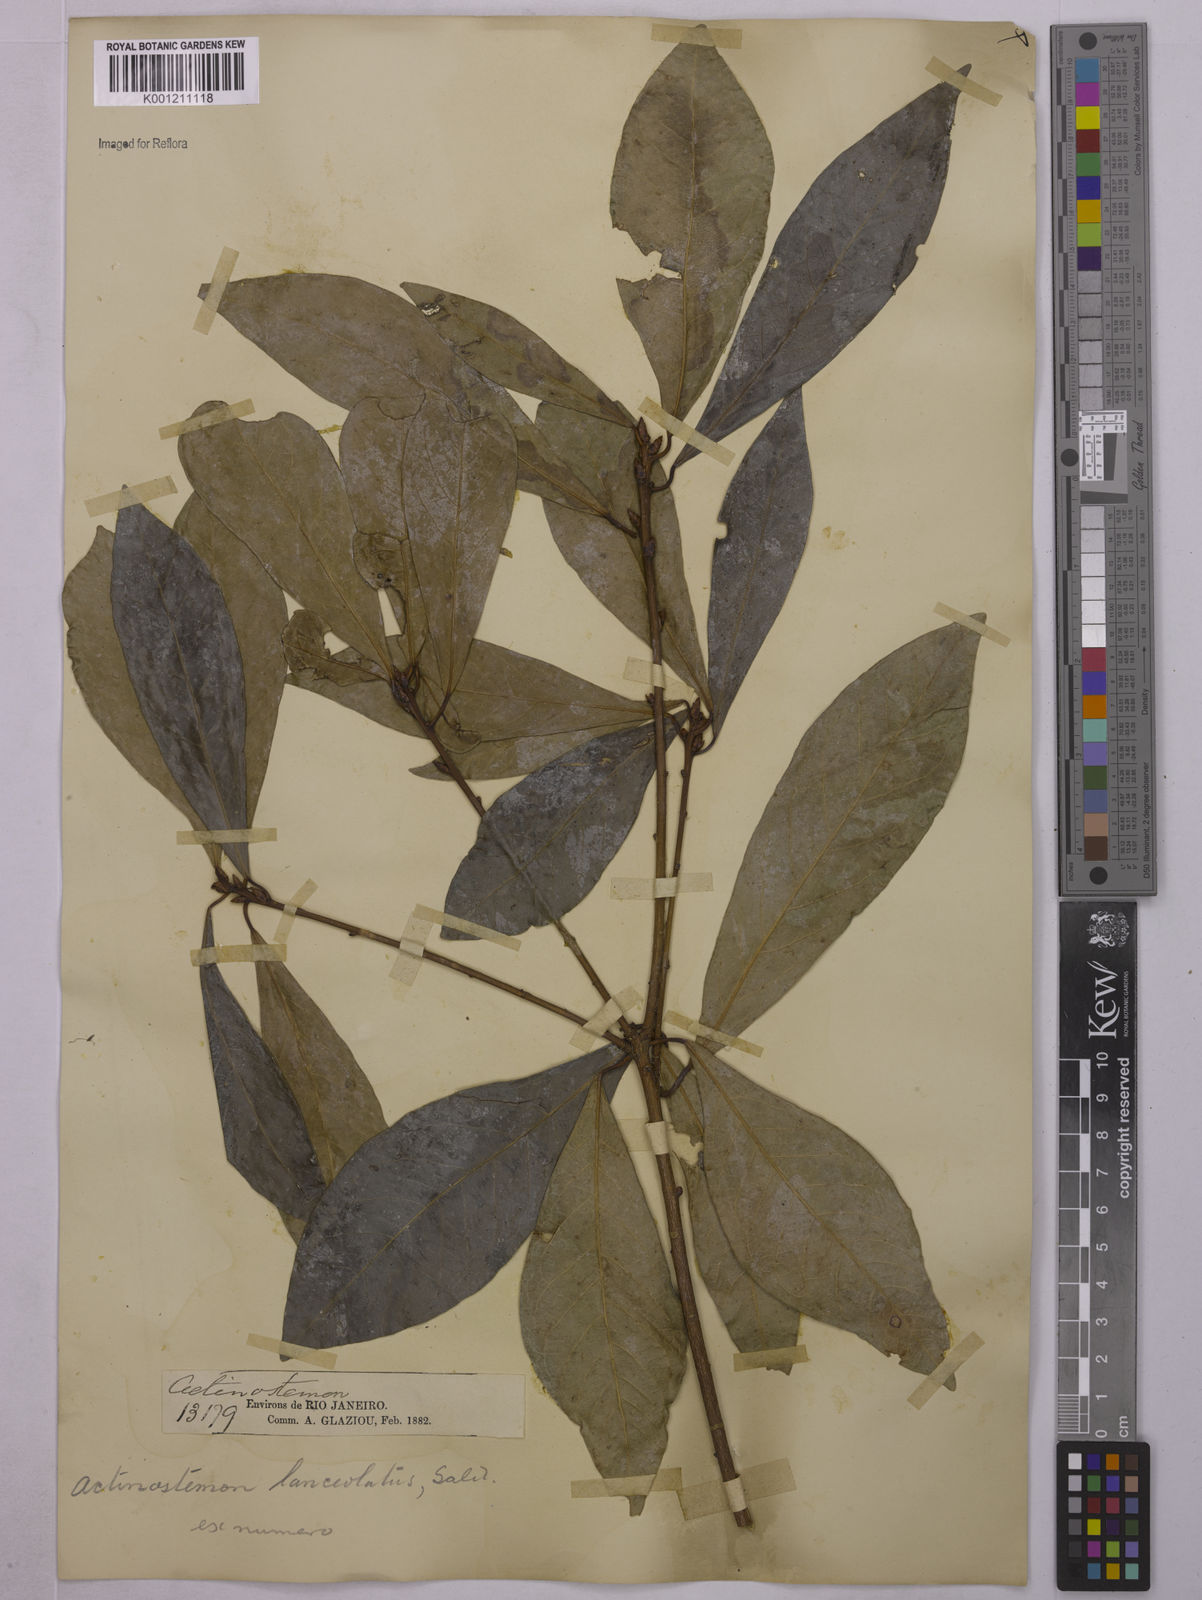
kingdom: Plantae
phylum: Tracheophyta
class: Magnoliopsida
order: Malpighiales
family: Euphorbiaceae
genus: Actinostemon
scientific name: Actinostemon
